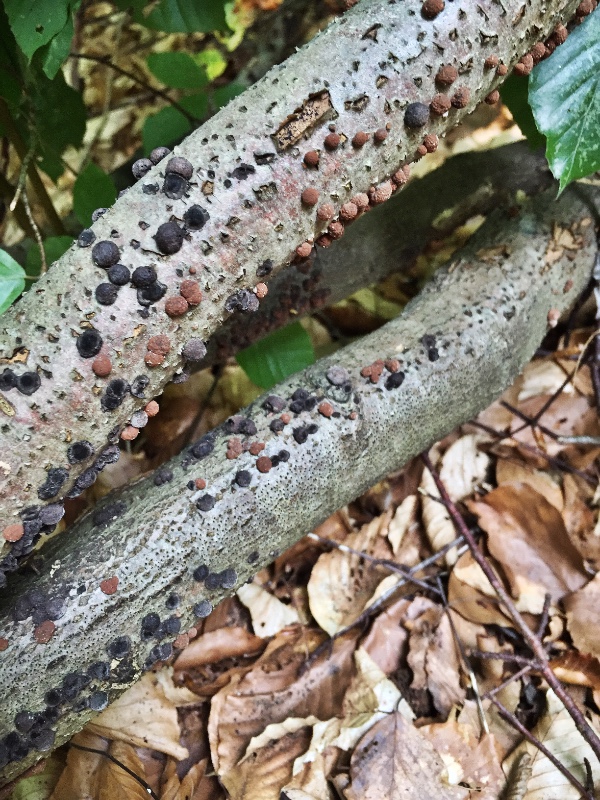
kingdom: Fungi
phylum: Ascomycota
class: Sordariomycetes
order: Xylariales
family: Hypoxylaceae
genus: Hypoxylon
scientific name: Hypoxylon fragiforme
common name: kuljordbær
